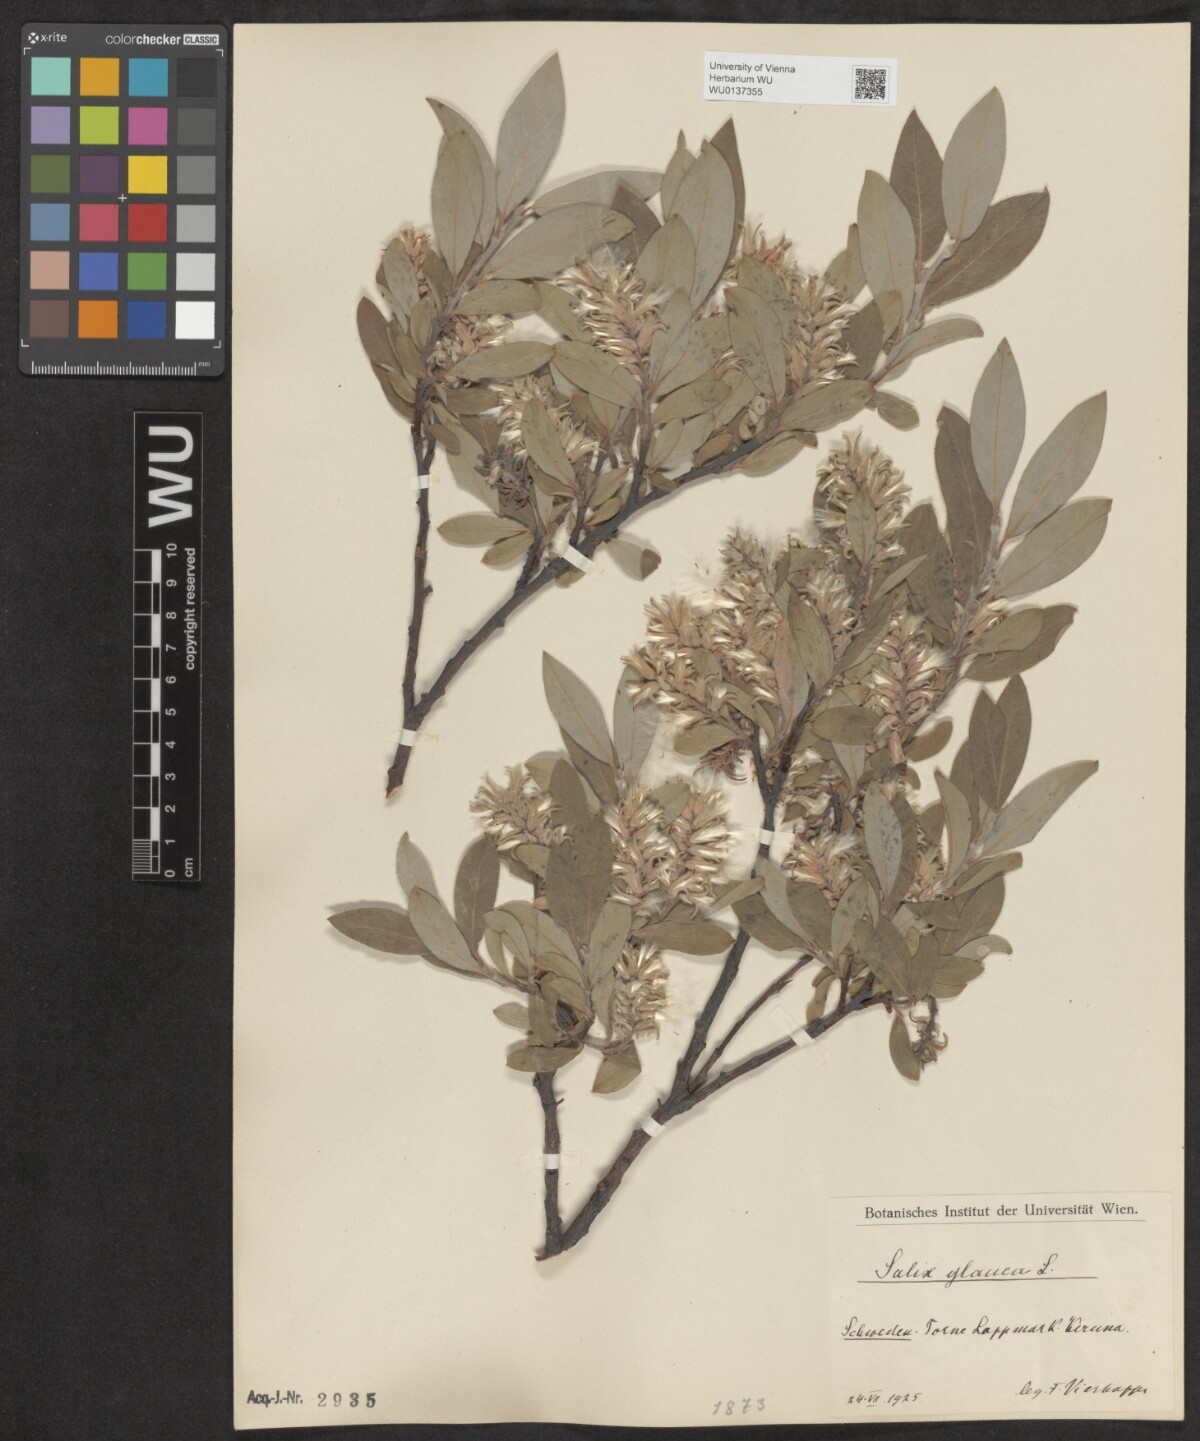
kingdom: Plantae
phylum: Tracheophyta
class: Magnoliopsida
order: Malpighiales
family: Salicaceae
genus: Salix
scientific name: Salix glauca
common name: Glaucous willow
